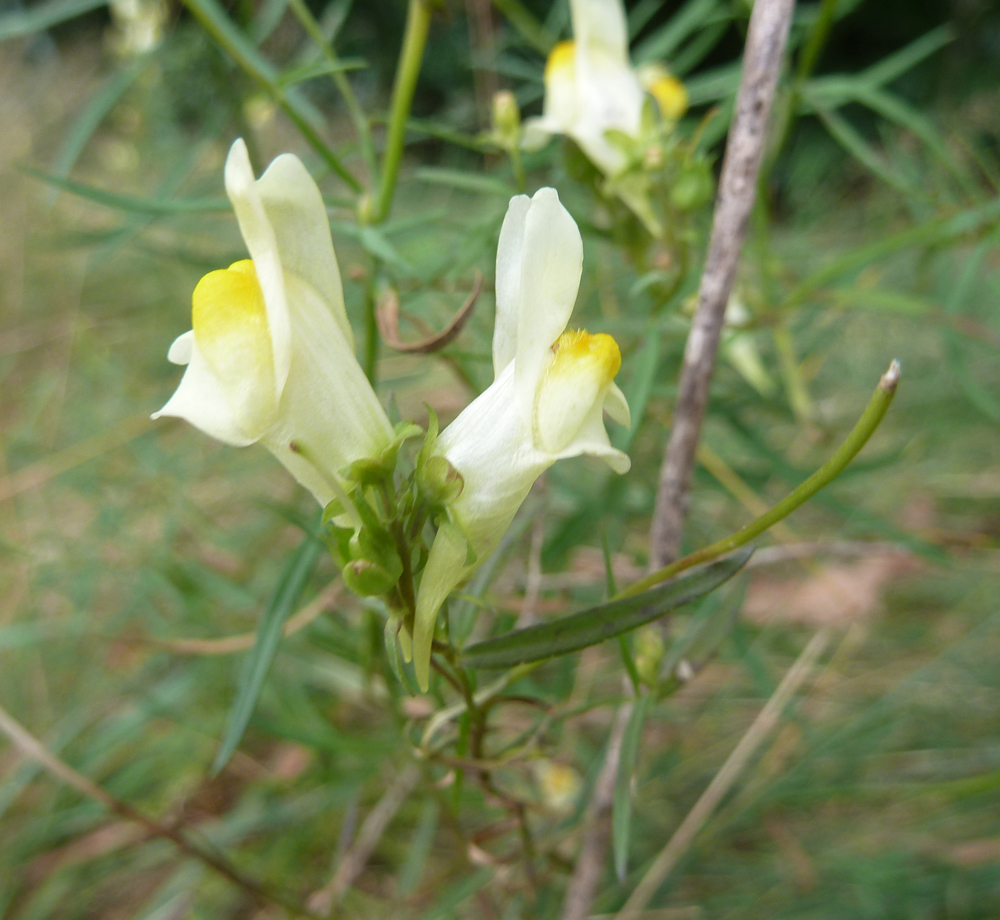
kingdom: Plantae
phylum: Tracheophyta
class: Magnoliopsida
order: Lamiales
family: Plantaginaceae
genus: Linaria
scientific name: Linaria vulgaris
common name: Butter and eggs
